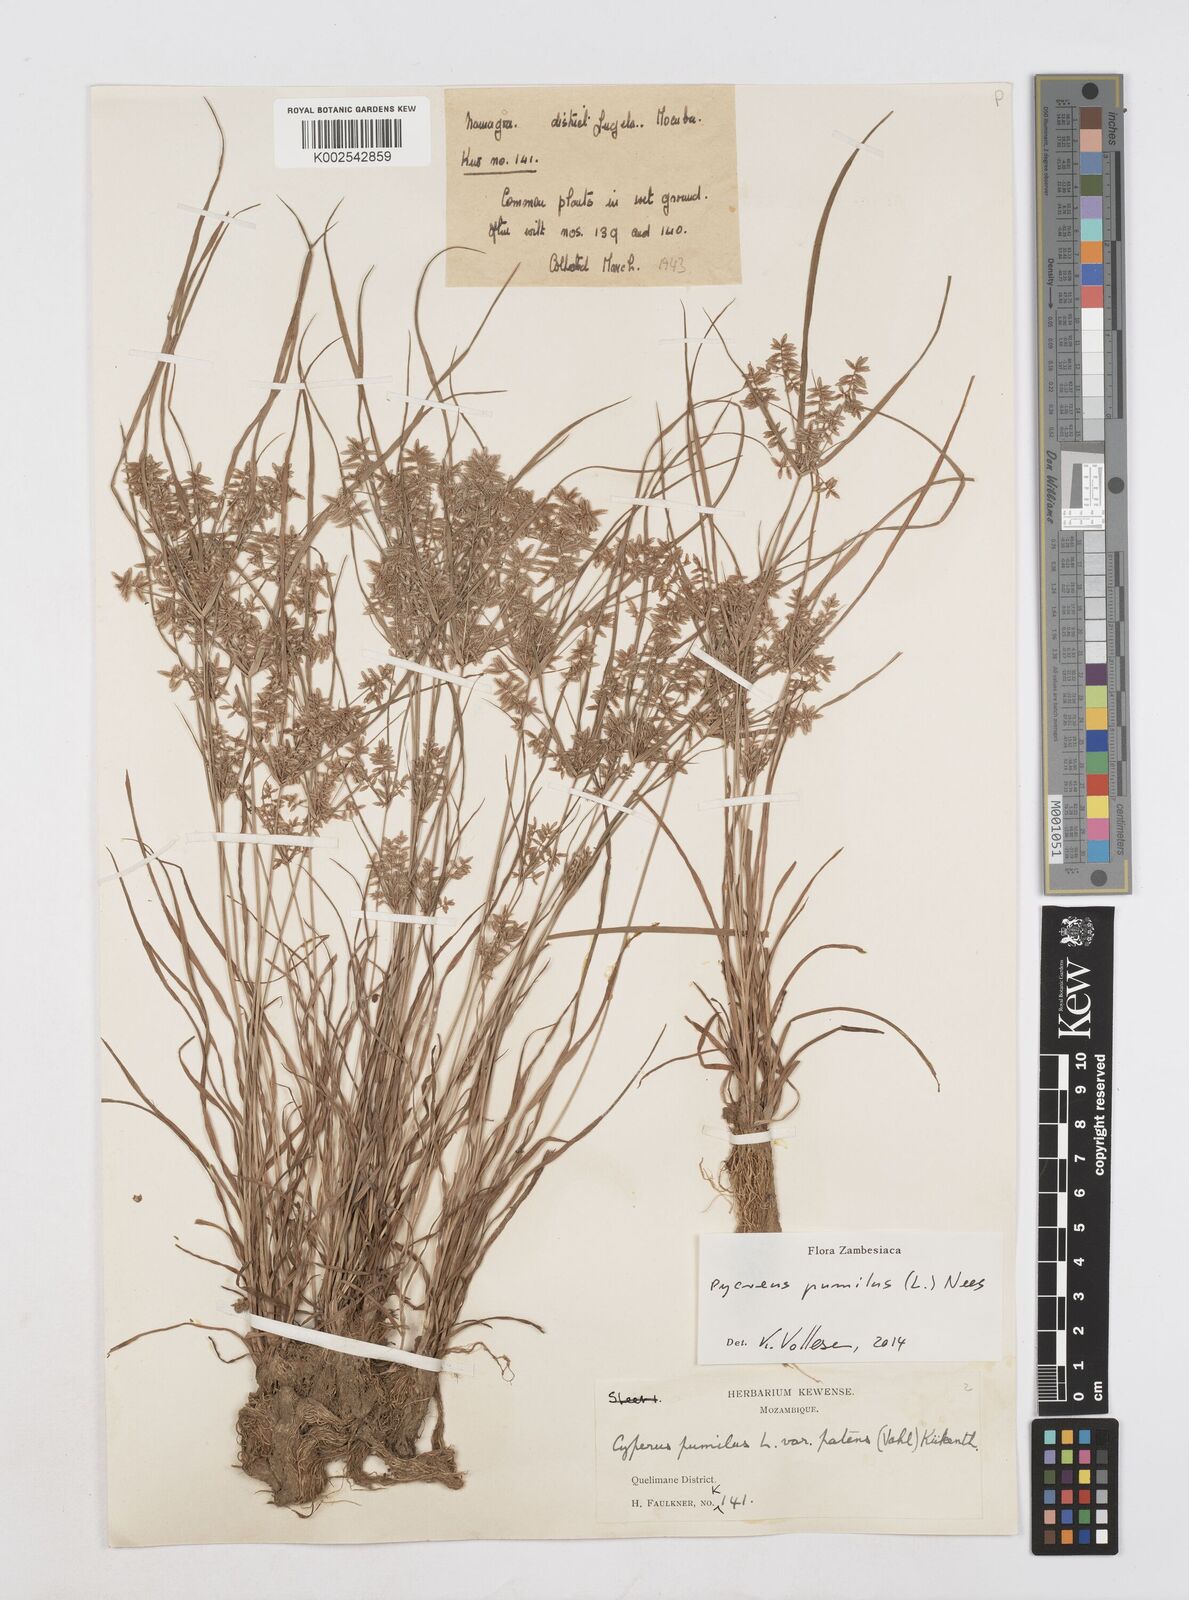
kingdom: Plantae
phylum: Tracheophyta
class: Liliopsida
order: Poales
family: Cyperaceae
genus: Cyperus
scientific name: Cyperus pumilus
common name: Low flatsedge
